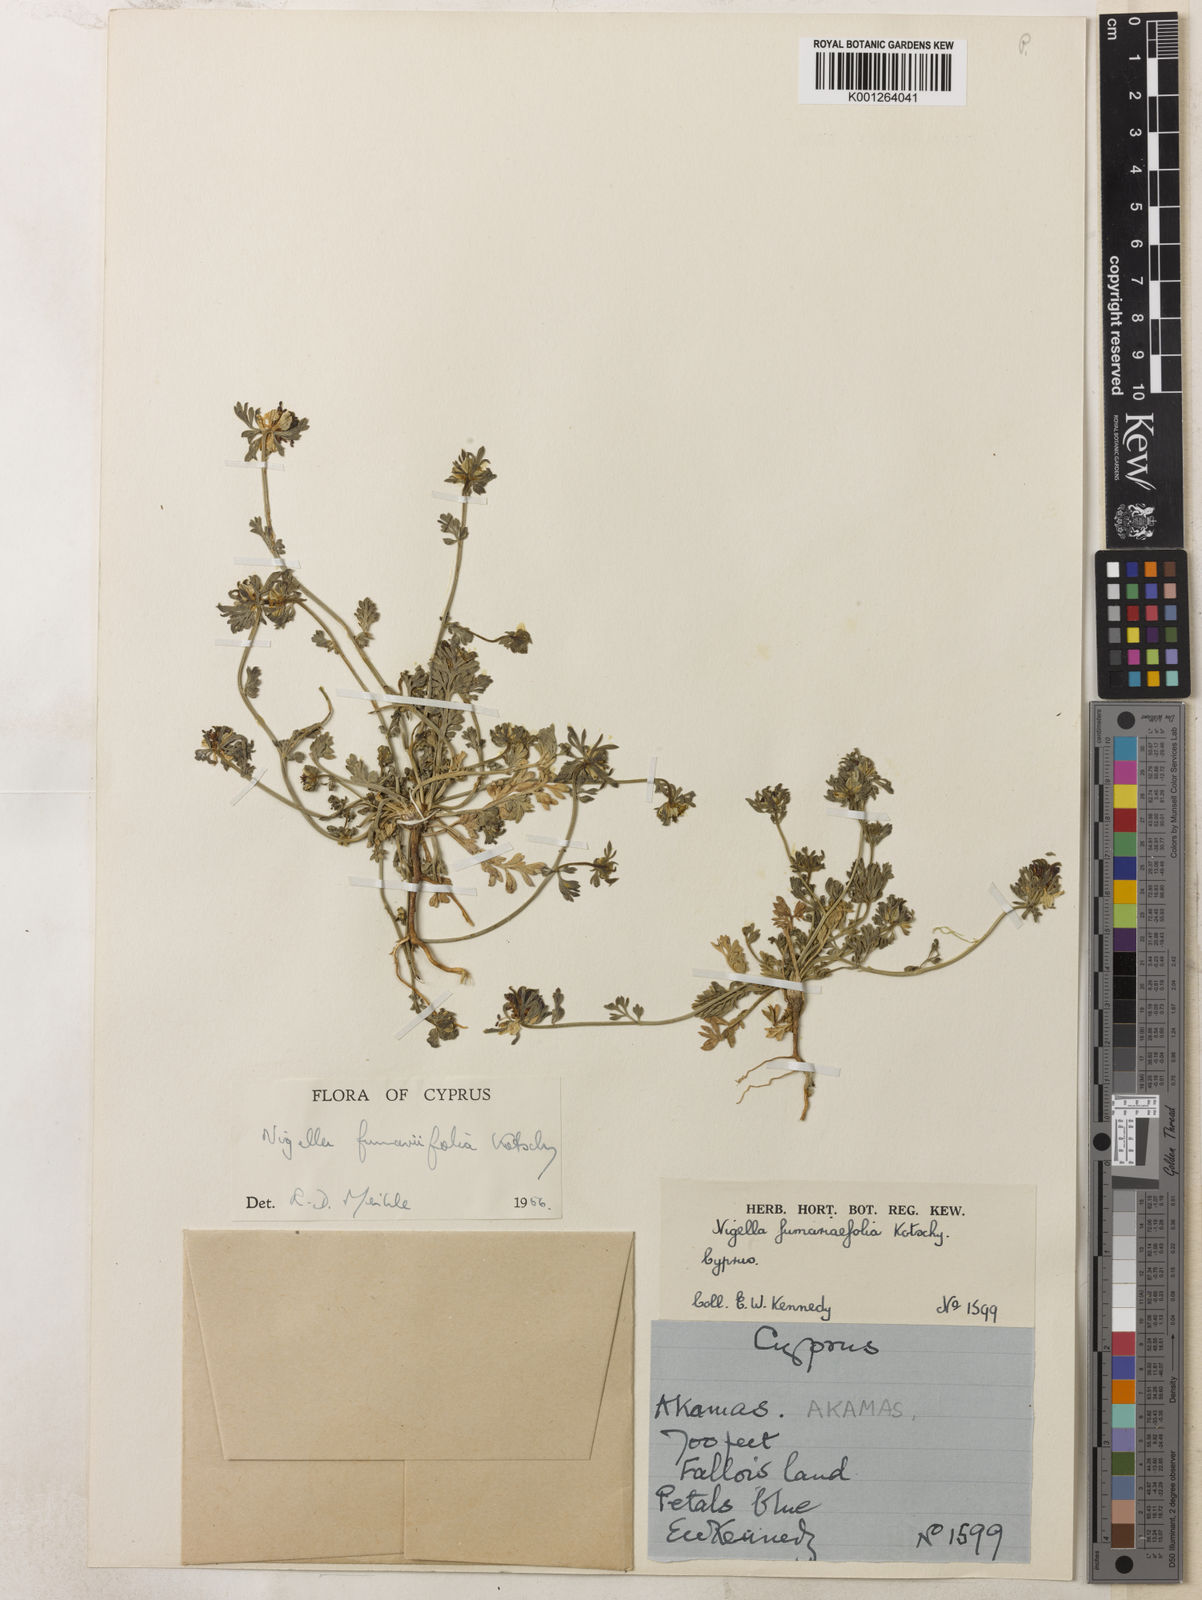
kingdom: Plantae
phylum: Tracheophyta
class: Magnoliopsida
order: Ranunculales
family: Ranunculaceae
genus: Nigella
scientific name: Nigella
